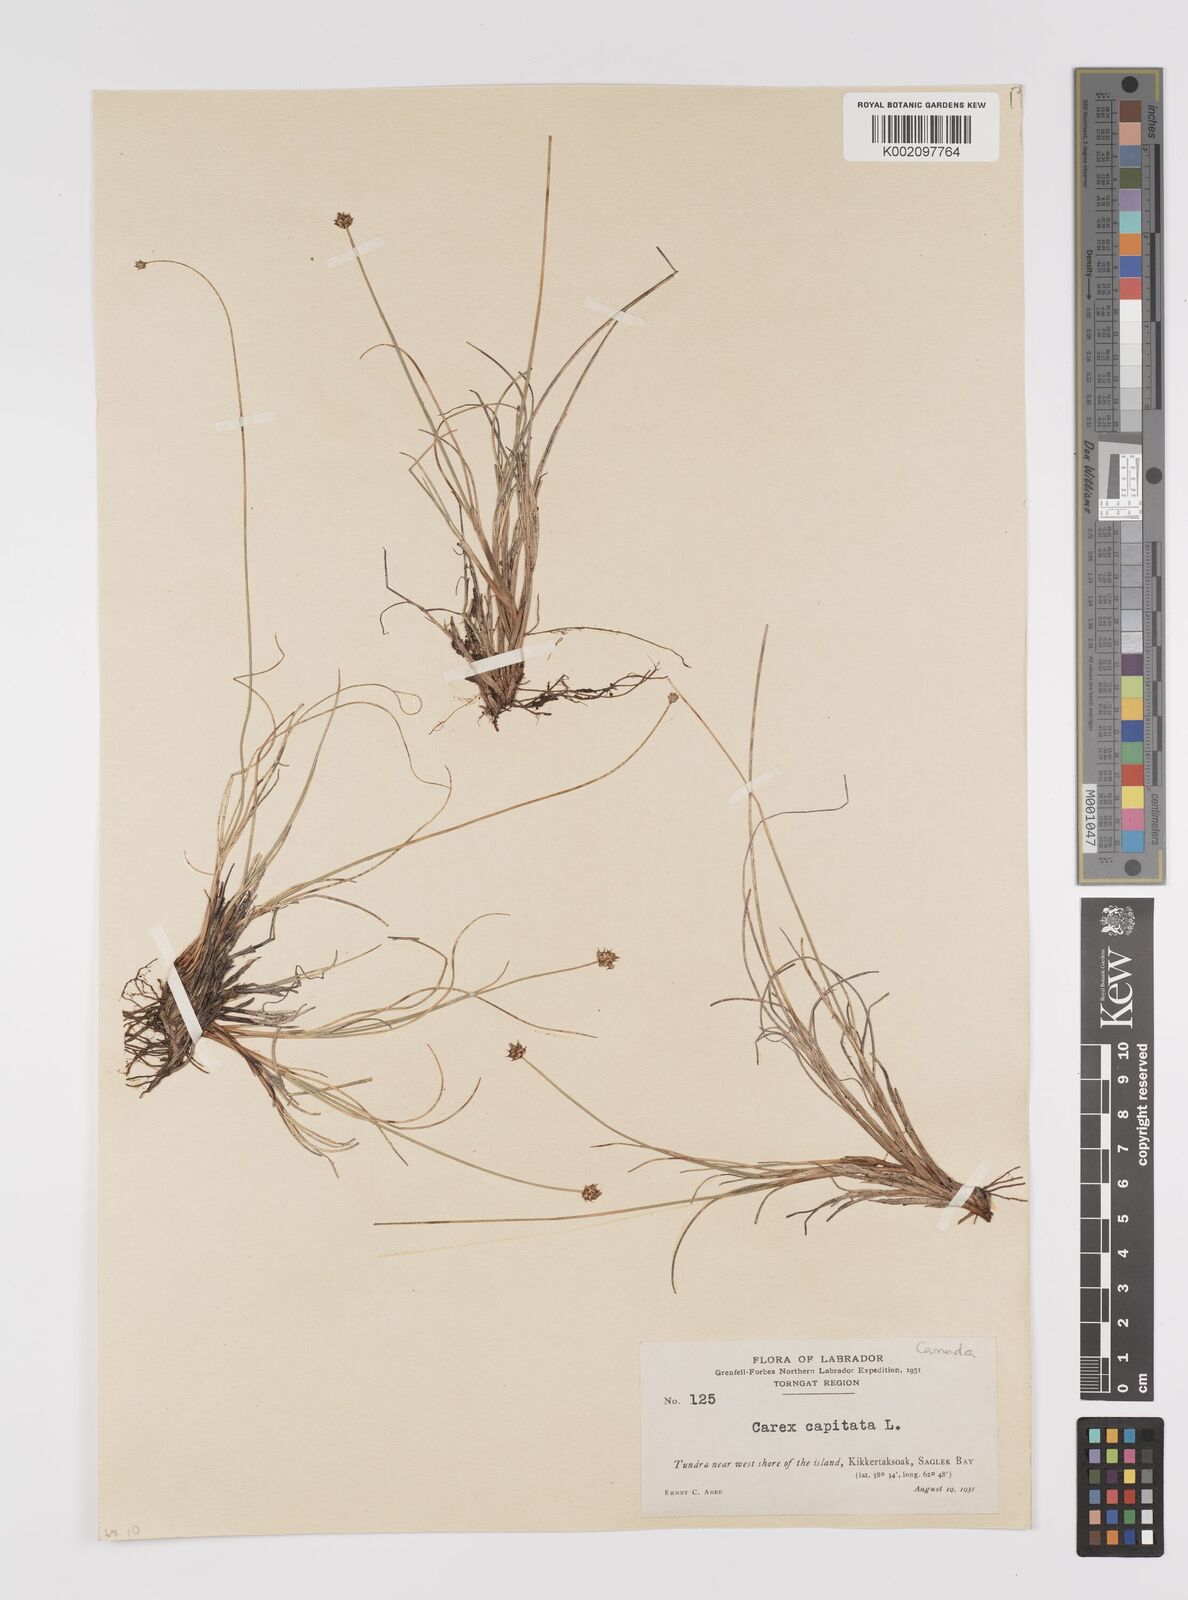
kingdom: Plantae
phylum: Tracheophyta
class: Liliopsida
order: Poales
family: Cyperaceae
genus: Carex
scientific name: Carex capitata
